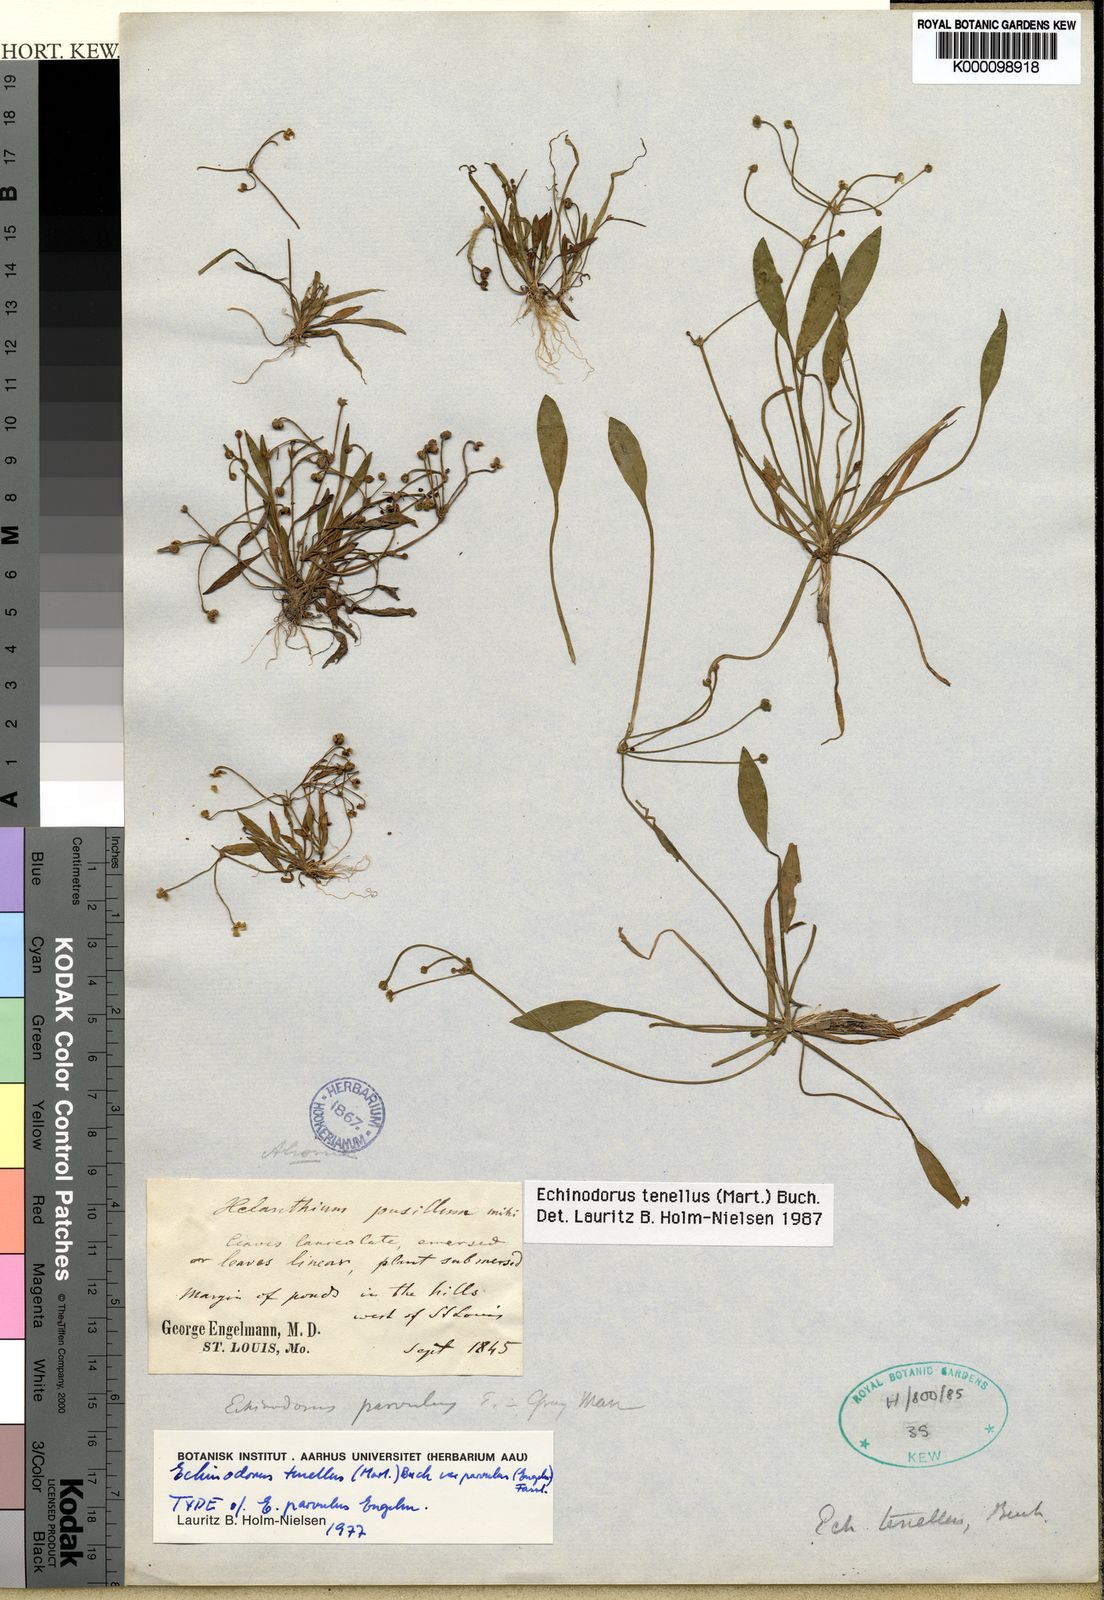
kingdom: Plantae
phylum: Tracheophyta
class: Liliopsida
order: Alismatales
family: Alismataceae
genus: Helanthium
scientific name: Helanthium tenellum
